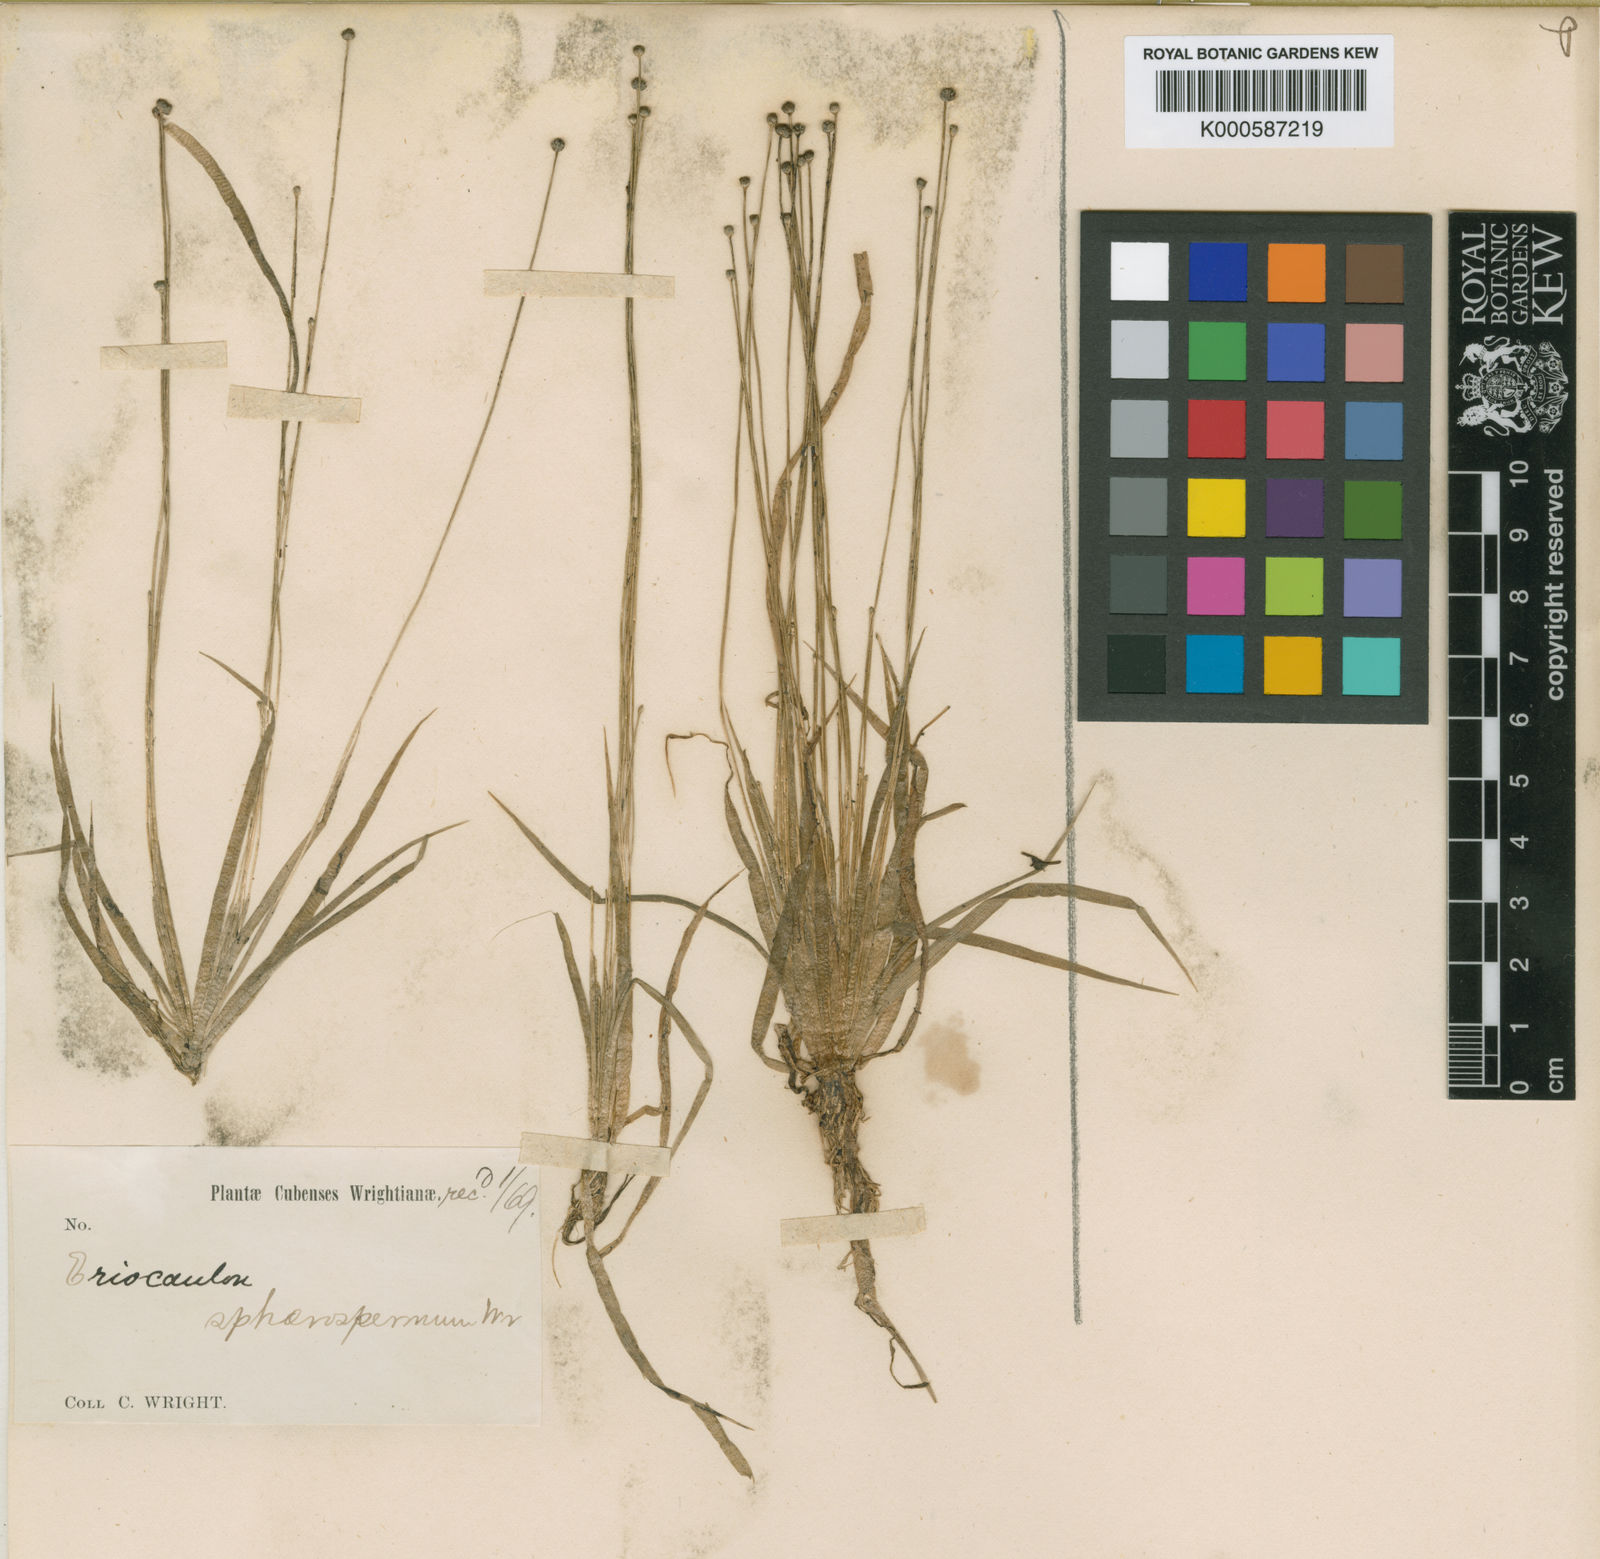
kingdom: Plantae
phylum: Tracheophyta
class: Liliopsida
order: Poales
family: Eriocaulaceae
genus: Eriocaulon
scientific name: Eriocaulon fuliginosum
